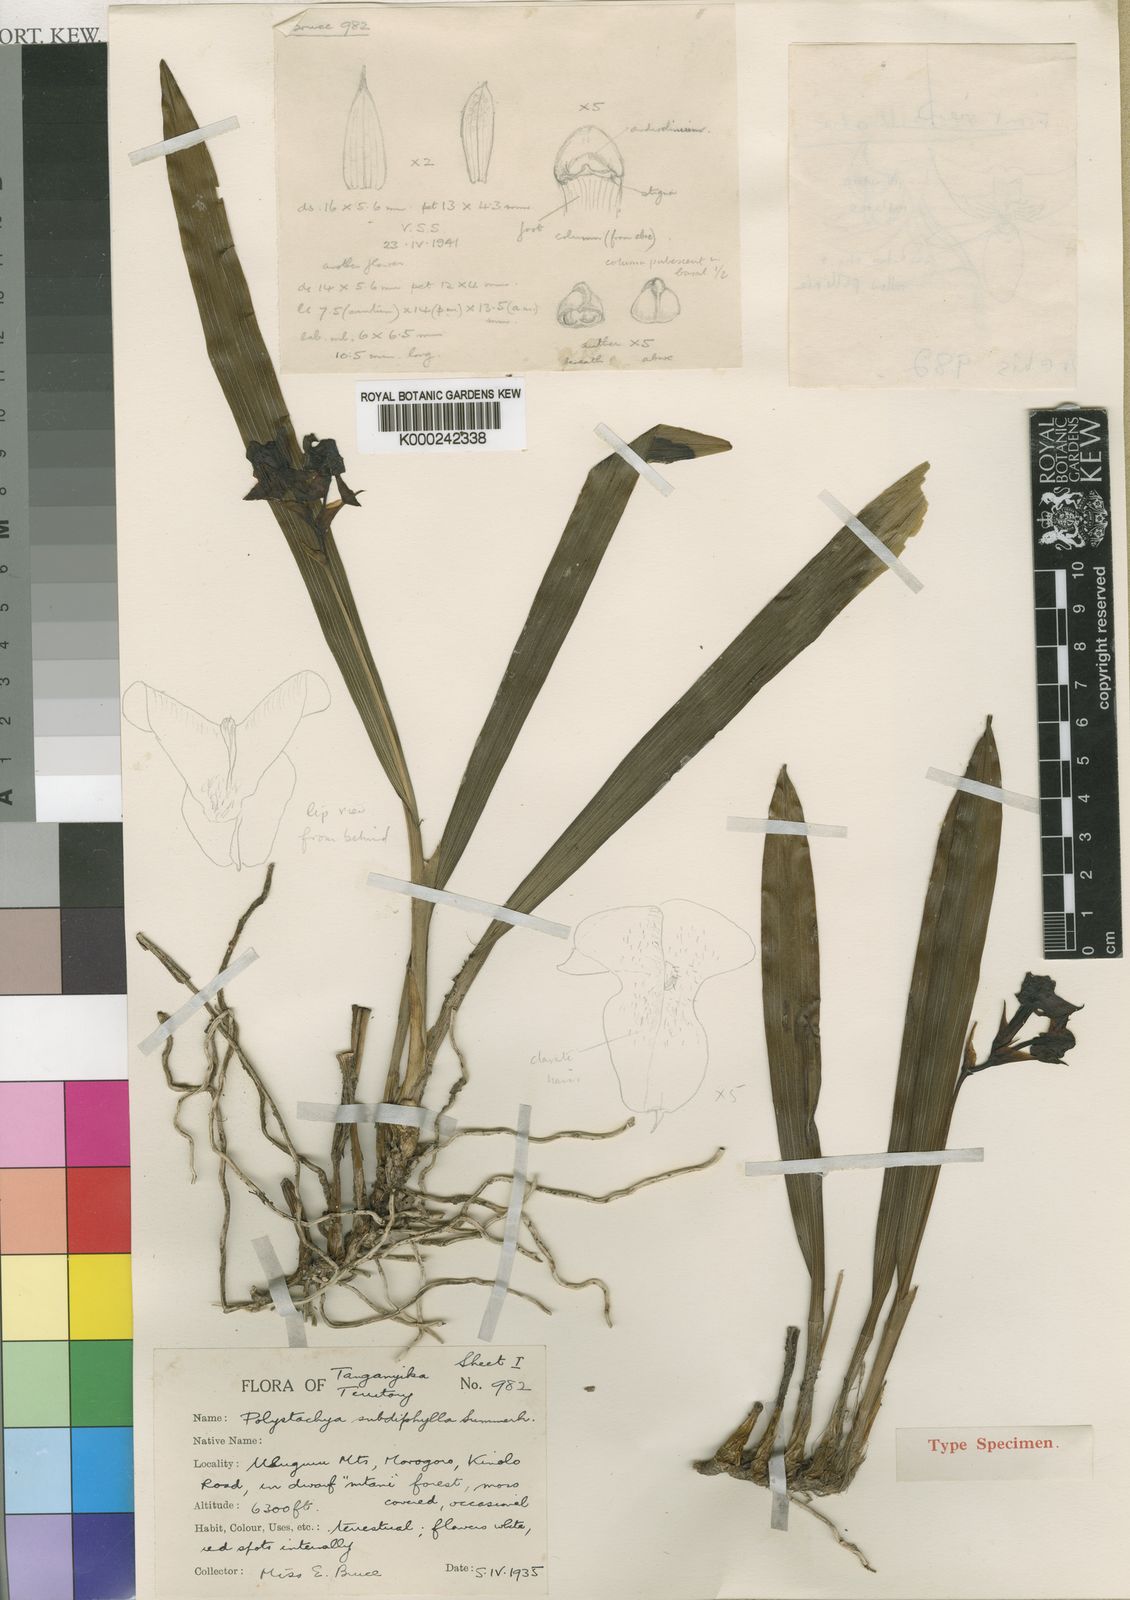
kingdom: Plantae
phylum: Tracheophyta
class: Liliopsida
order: Asparagales
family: Orchidaceae
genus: Polystachya
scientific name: Polystachya subdiphylla
